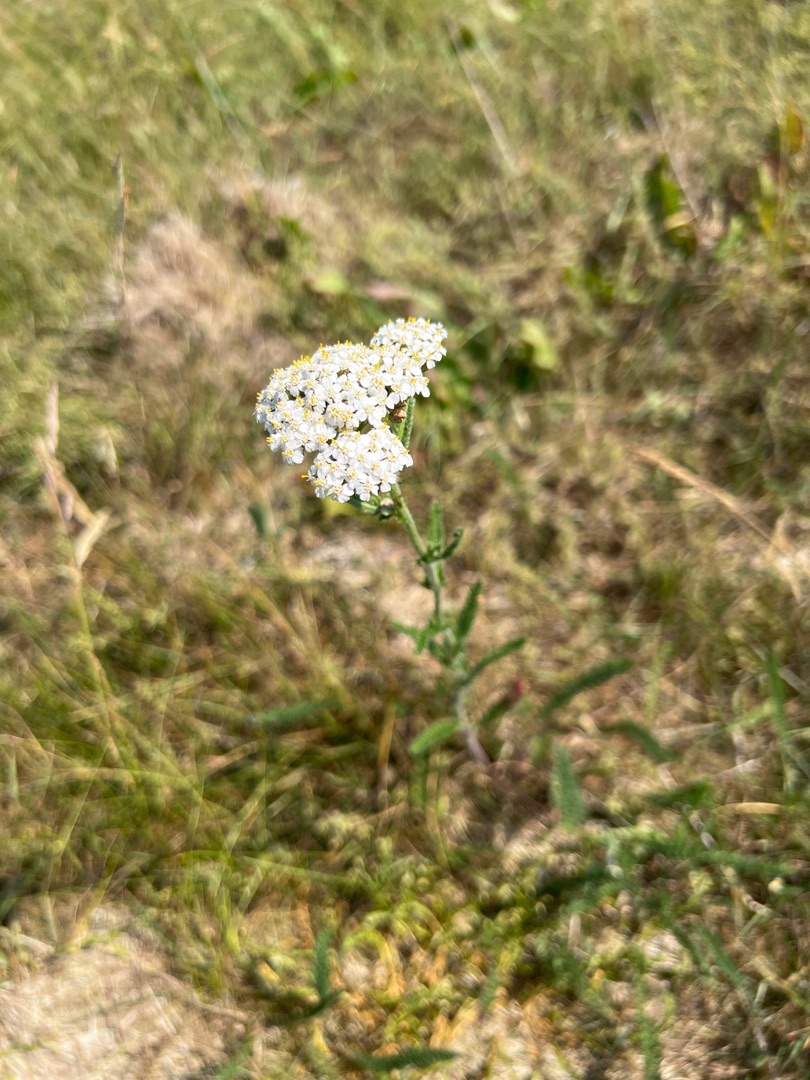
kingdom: Plantae
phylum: Tracheophyta
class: Magnoliopsida
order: Asterales
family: Asteraceae
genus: Achillea
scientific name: Achillea millefolium
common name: Almindelig røllike
